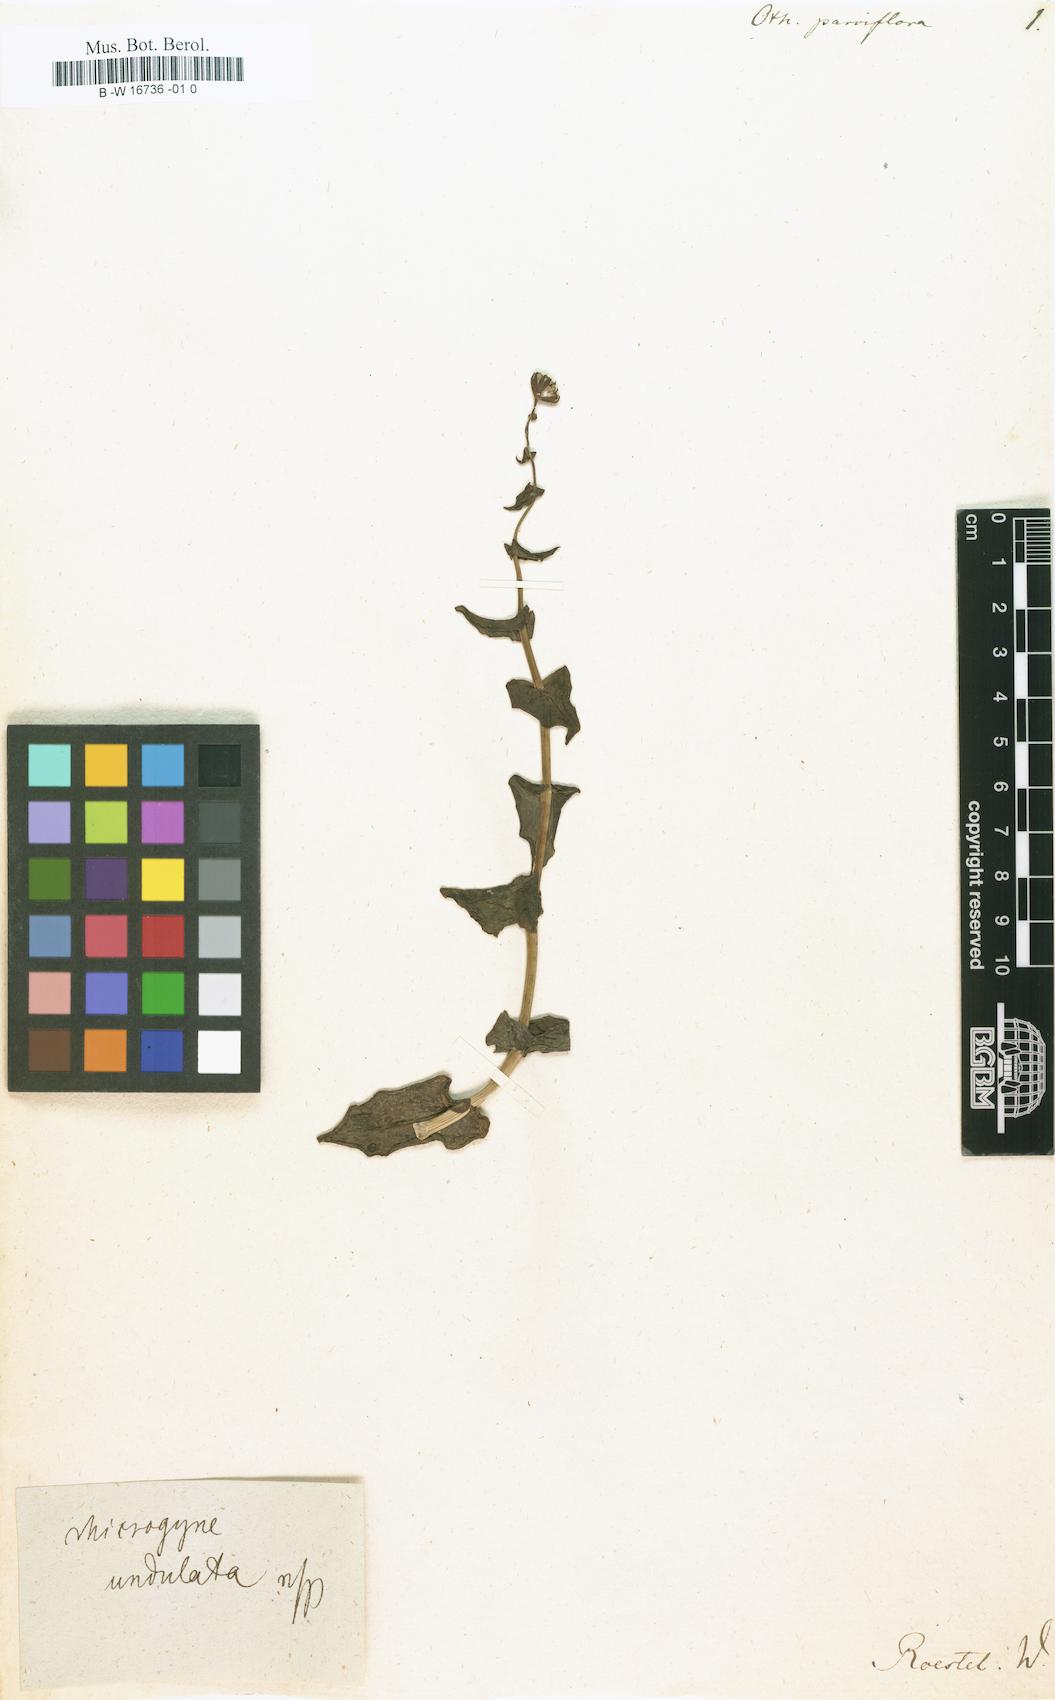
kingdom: Plantae
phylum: Tracheophyta
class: Magnoliopsida
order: Asterales
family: Asteraceae
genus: Othonna
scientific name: Othonna parviflora
